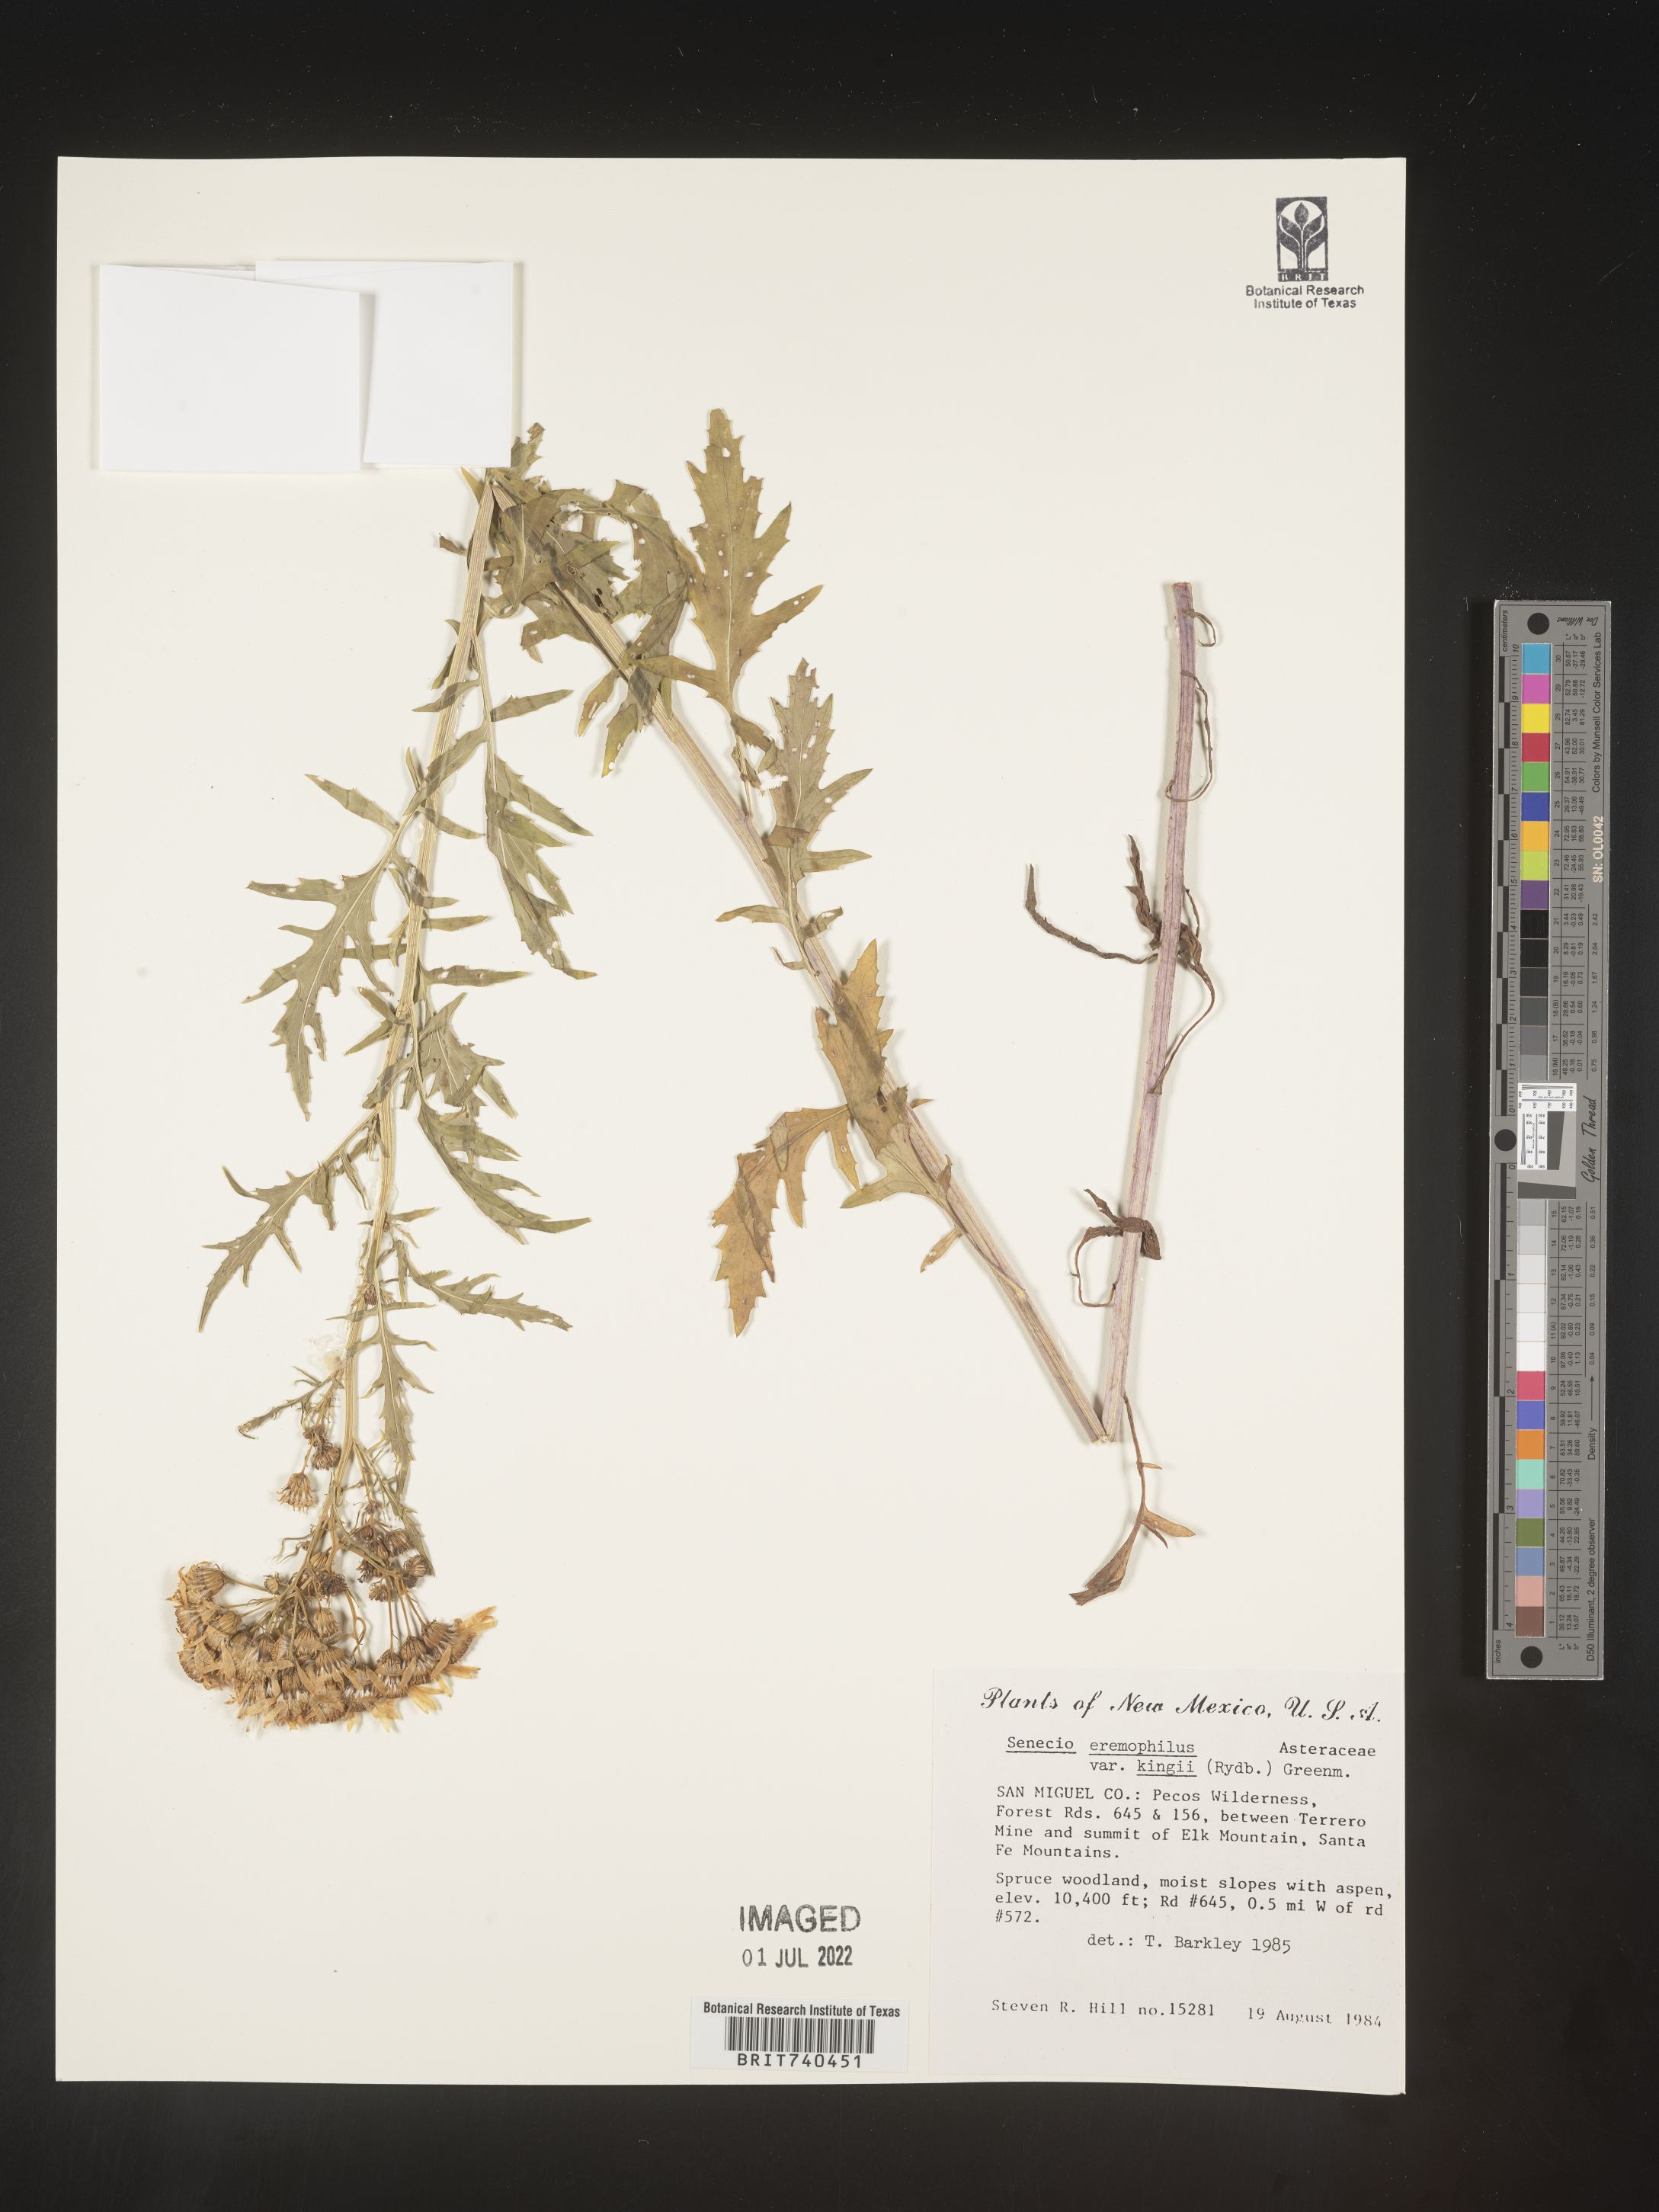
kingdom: Plantae
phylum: Tracheophyta
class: Magnoliopsida
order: Asterales
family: Asteraceae
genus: Senecio
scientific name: Senecio eremophilus
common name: Desert ragwort
